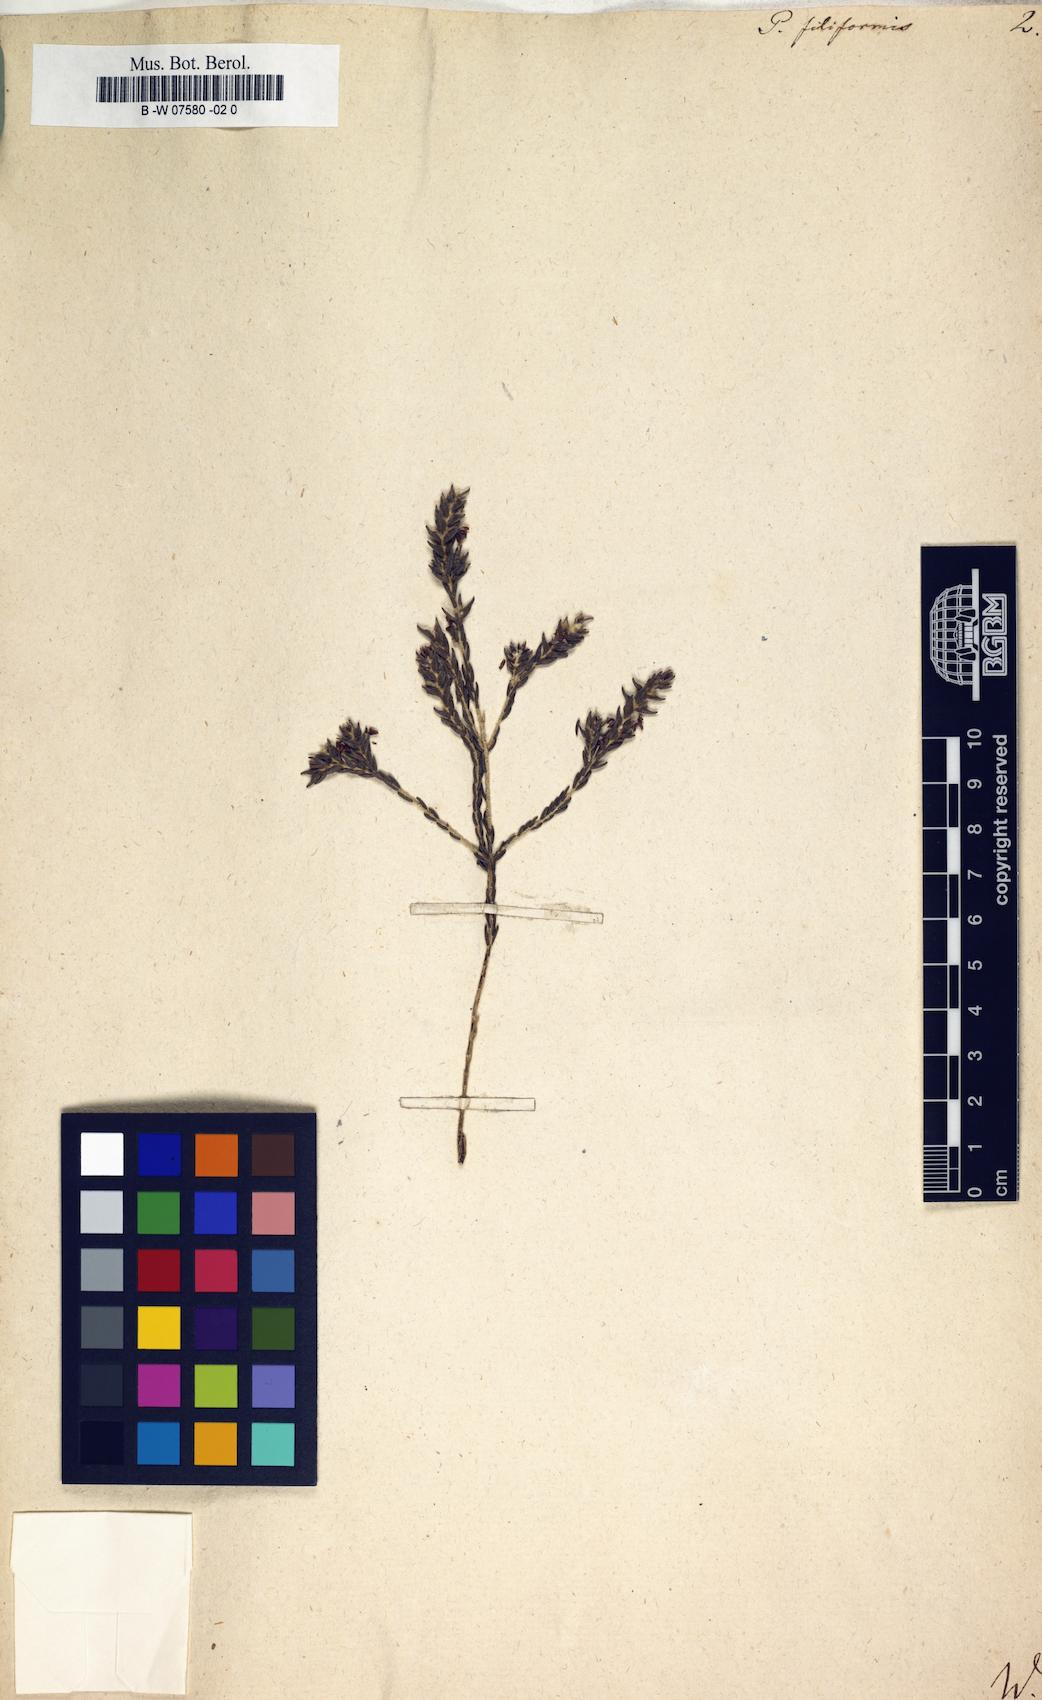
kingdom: Plantae
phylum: Tracheophyta
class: Magnoliopsida
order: Malvales
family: Thymelaeaceae
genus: Passerina
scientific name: Passerina filiformis
